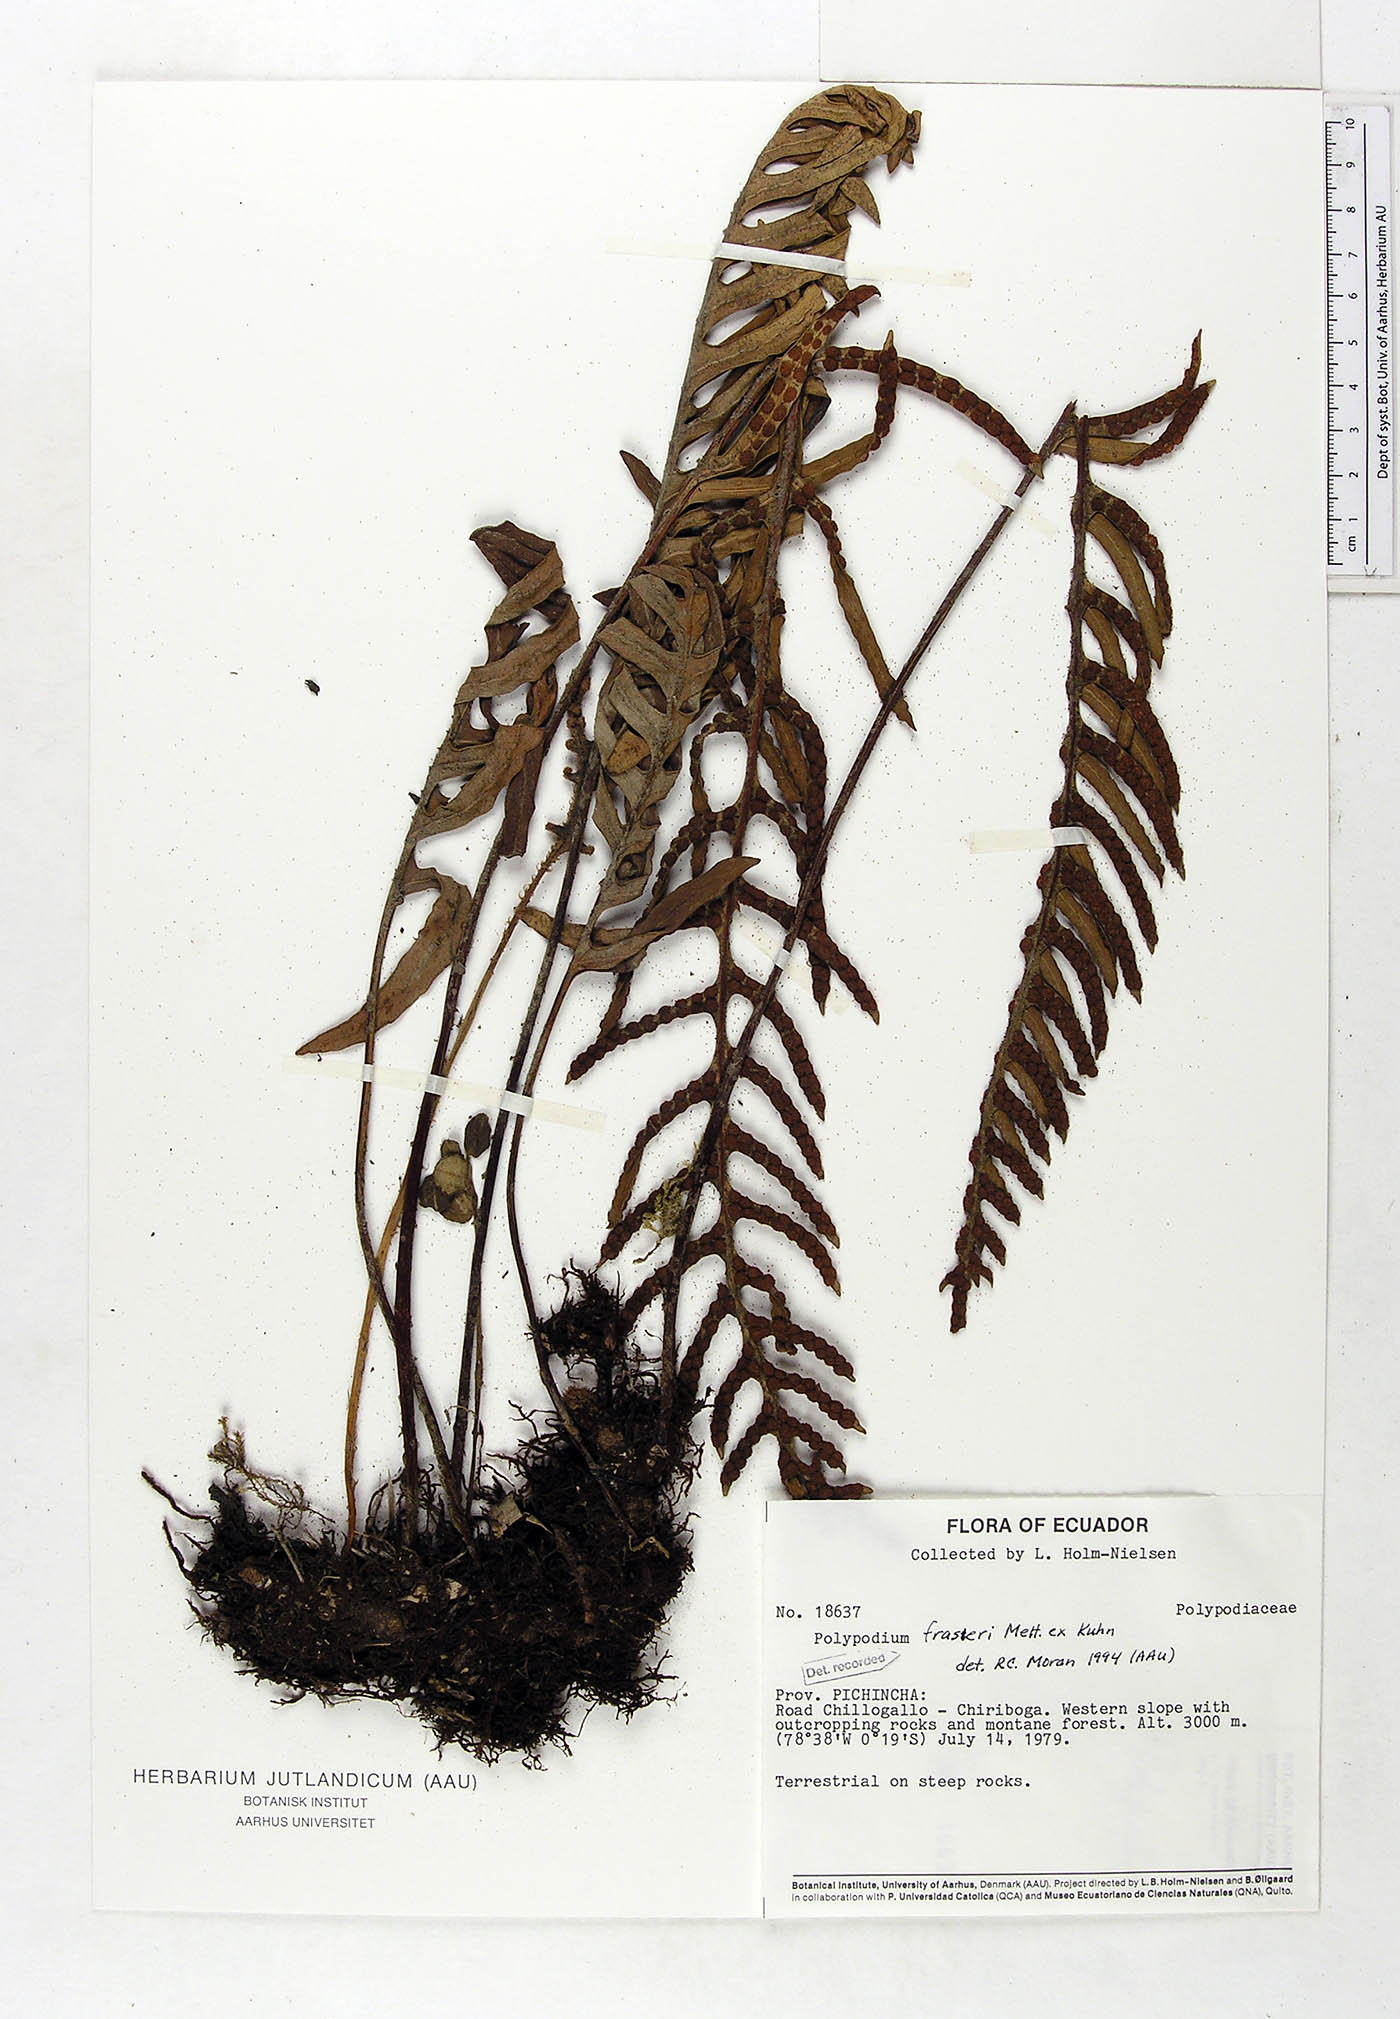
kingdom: Plantae
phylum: Tracheophyta
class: Polypodiopsida
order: Polypodiales
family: Polypodiaceae
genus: Pleopeltis
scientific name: Pleopeltis fraseri
